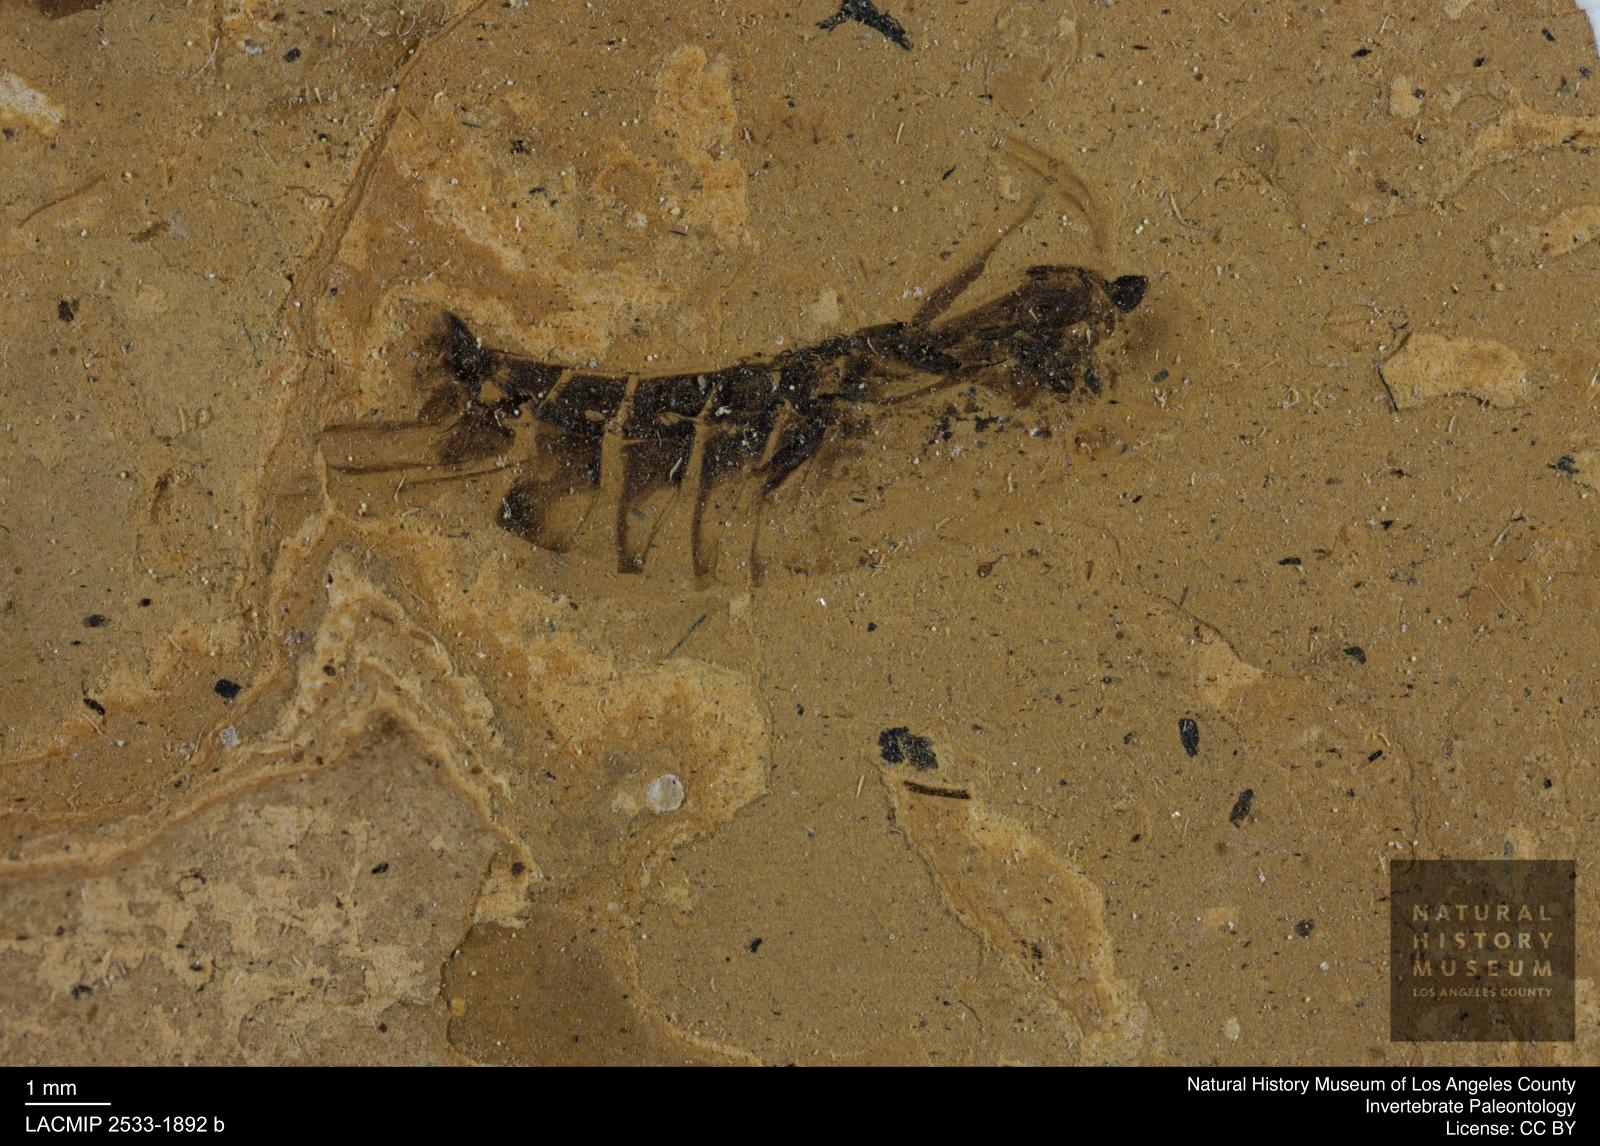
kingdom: Animalia
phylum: Arthropoda
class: Insecta
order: Hemiptera
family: Notonectidae
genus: Anisops
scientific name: Anisops Notonecta deichmuelleri
